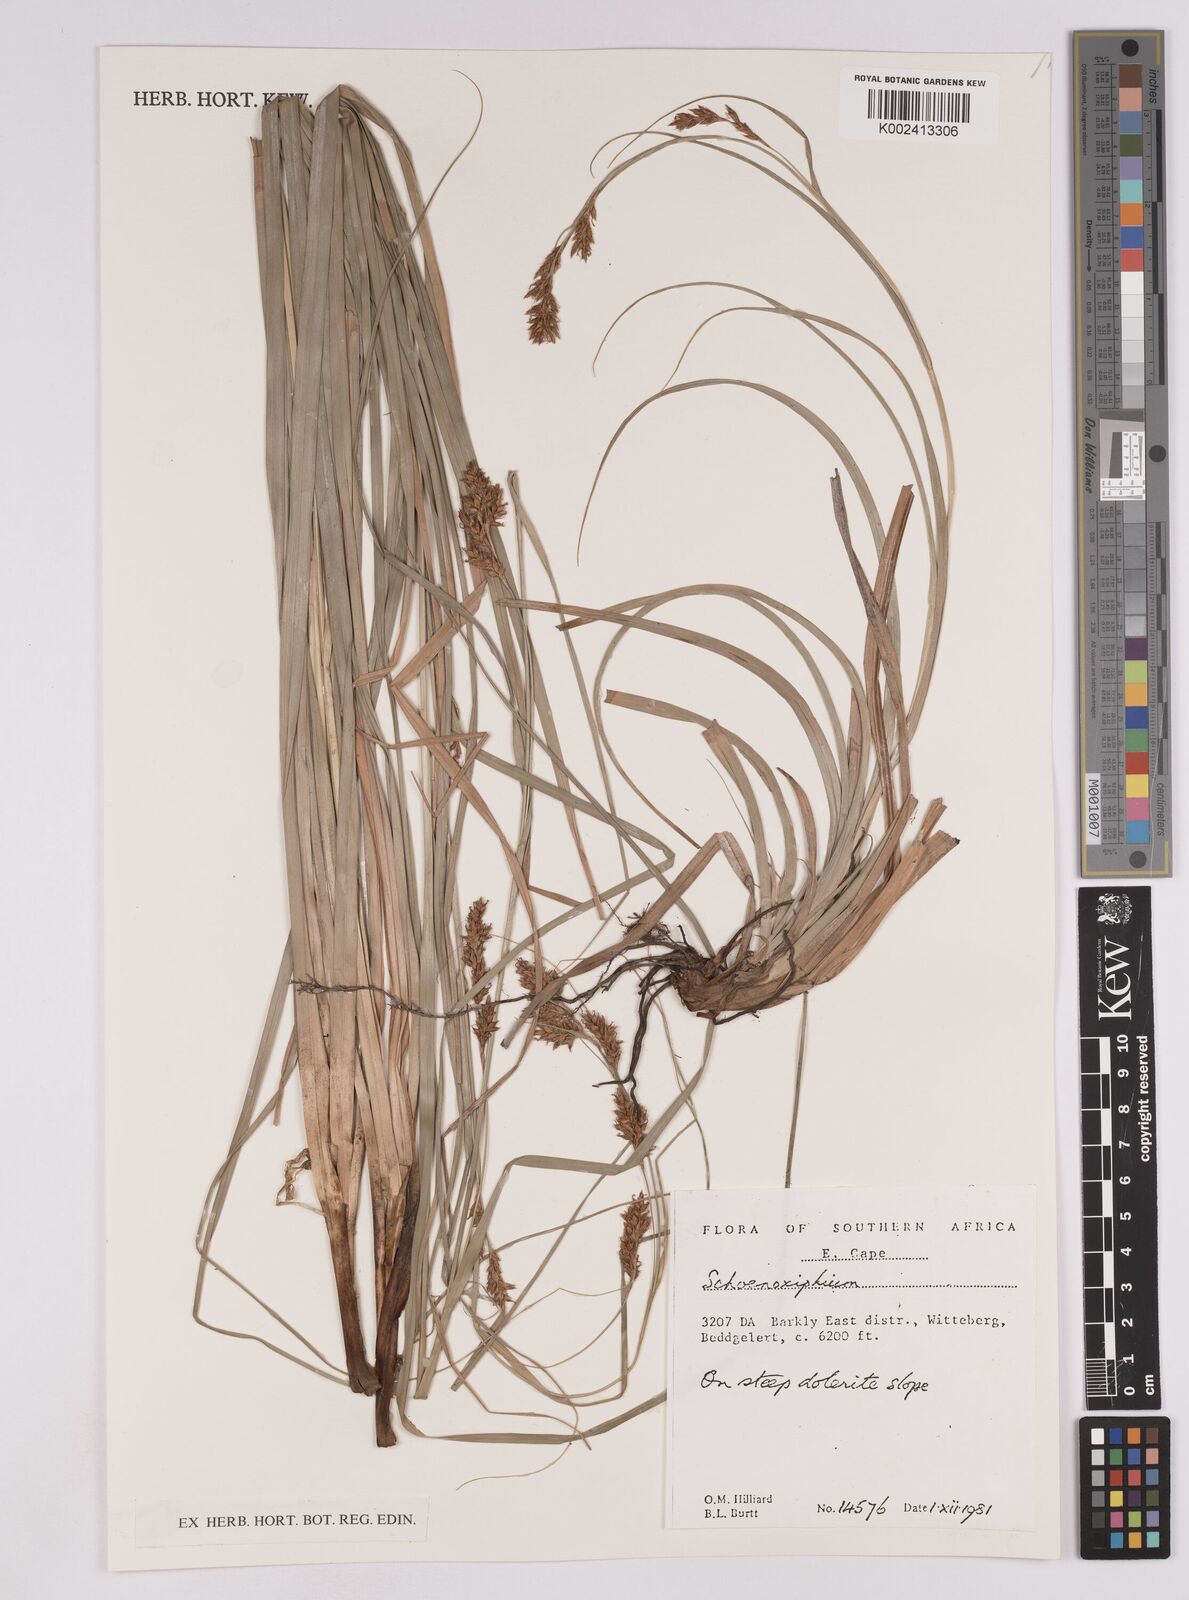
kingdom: Plantae
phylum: Tracheophyta
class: Liliopsida
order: Poales
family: Cyperaceae
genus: Carex
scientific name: Carex
